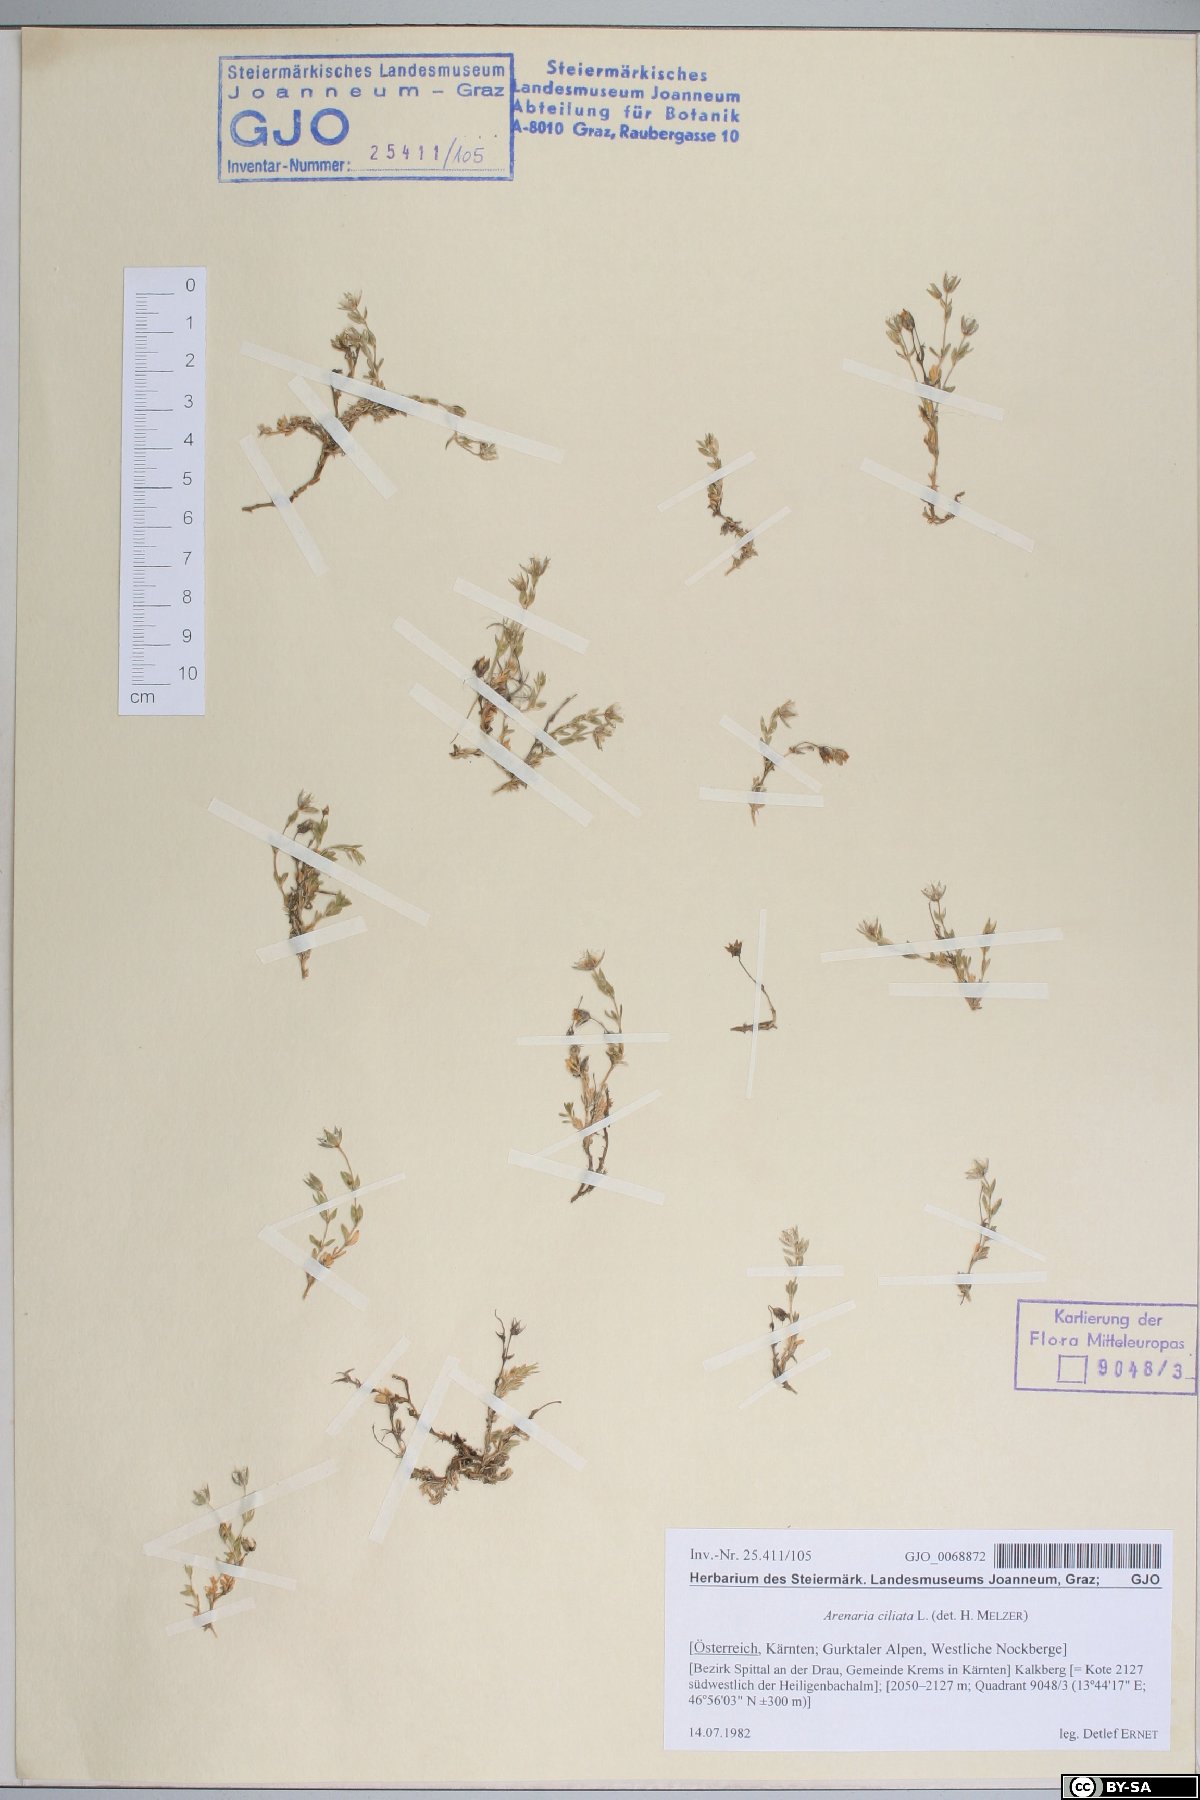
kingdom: Plantae
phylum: Tracheophyta
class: Magnoliopsida
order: Caryophyllales
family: Caryophyllaceae
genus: Arenaria
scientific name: Arenaria ciliata
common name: Fringed sandwort
